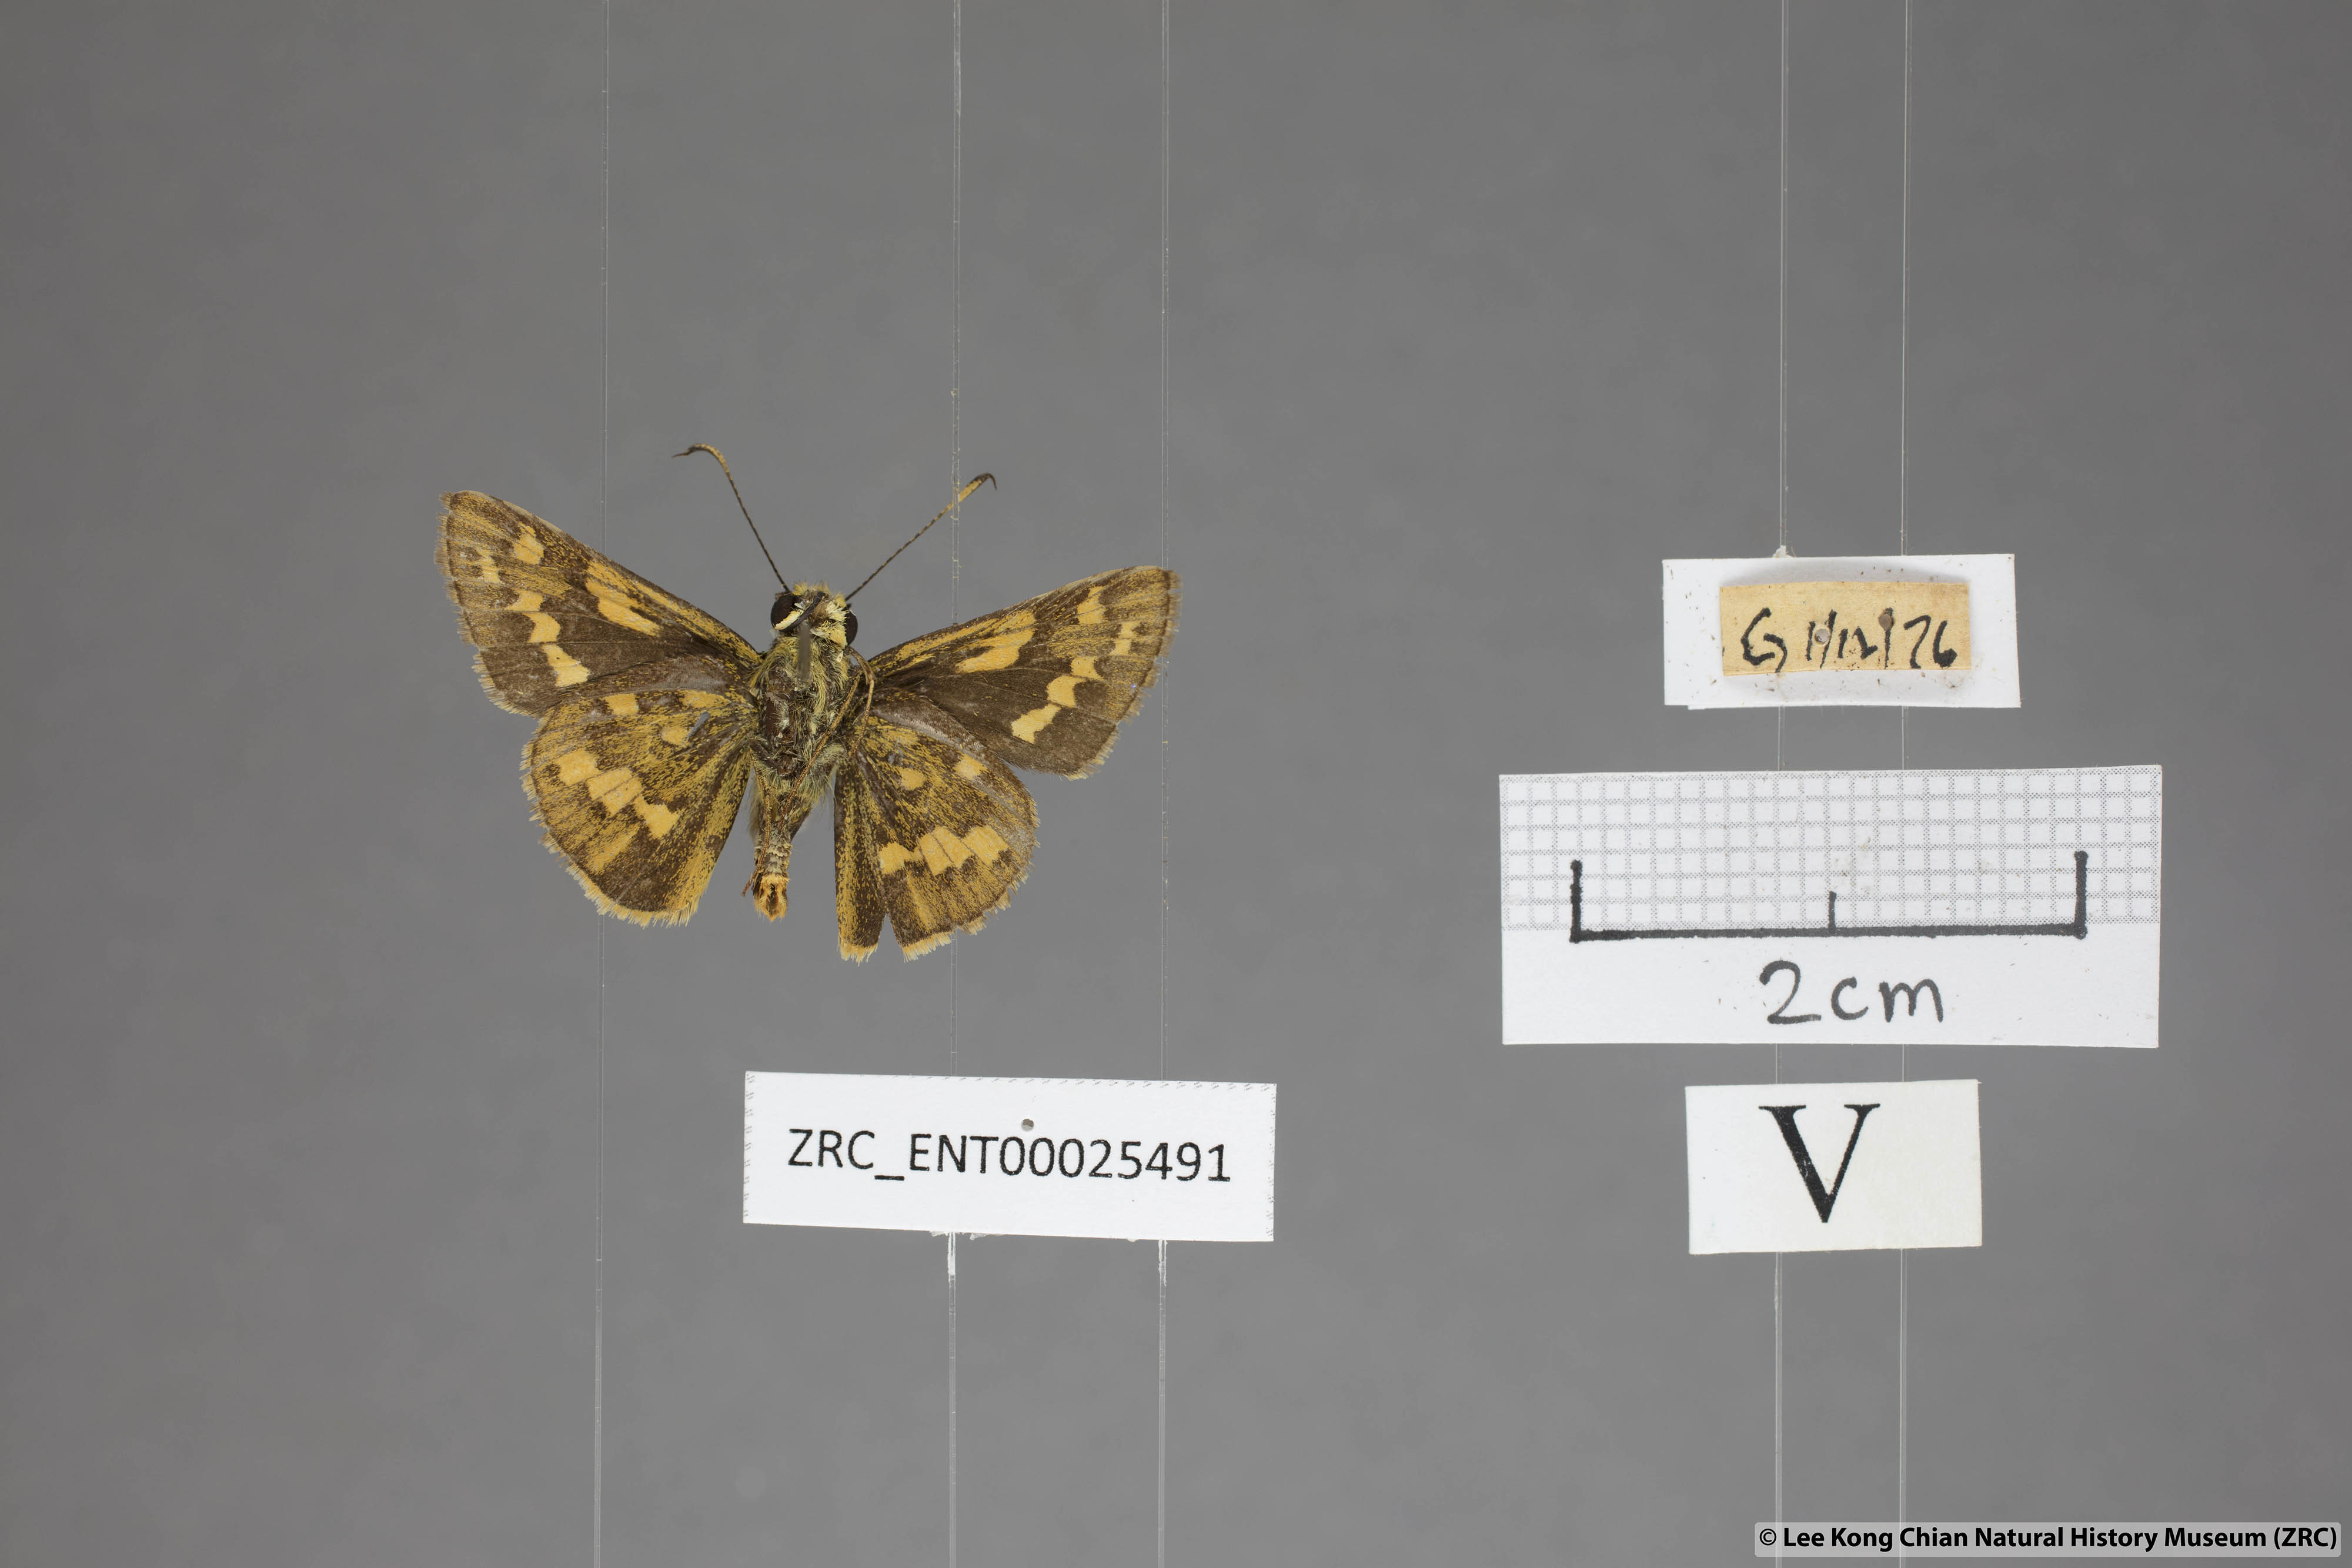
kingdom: Animalia
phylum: Arthropoda
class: Insecta
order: Lepidoptera
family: Hesperiidae
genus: Potanthus
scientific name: Potanthus trachala
